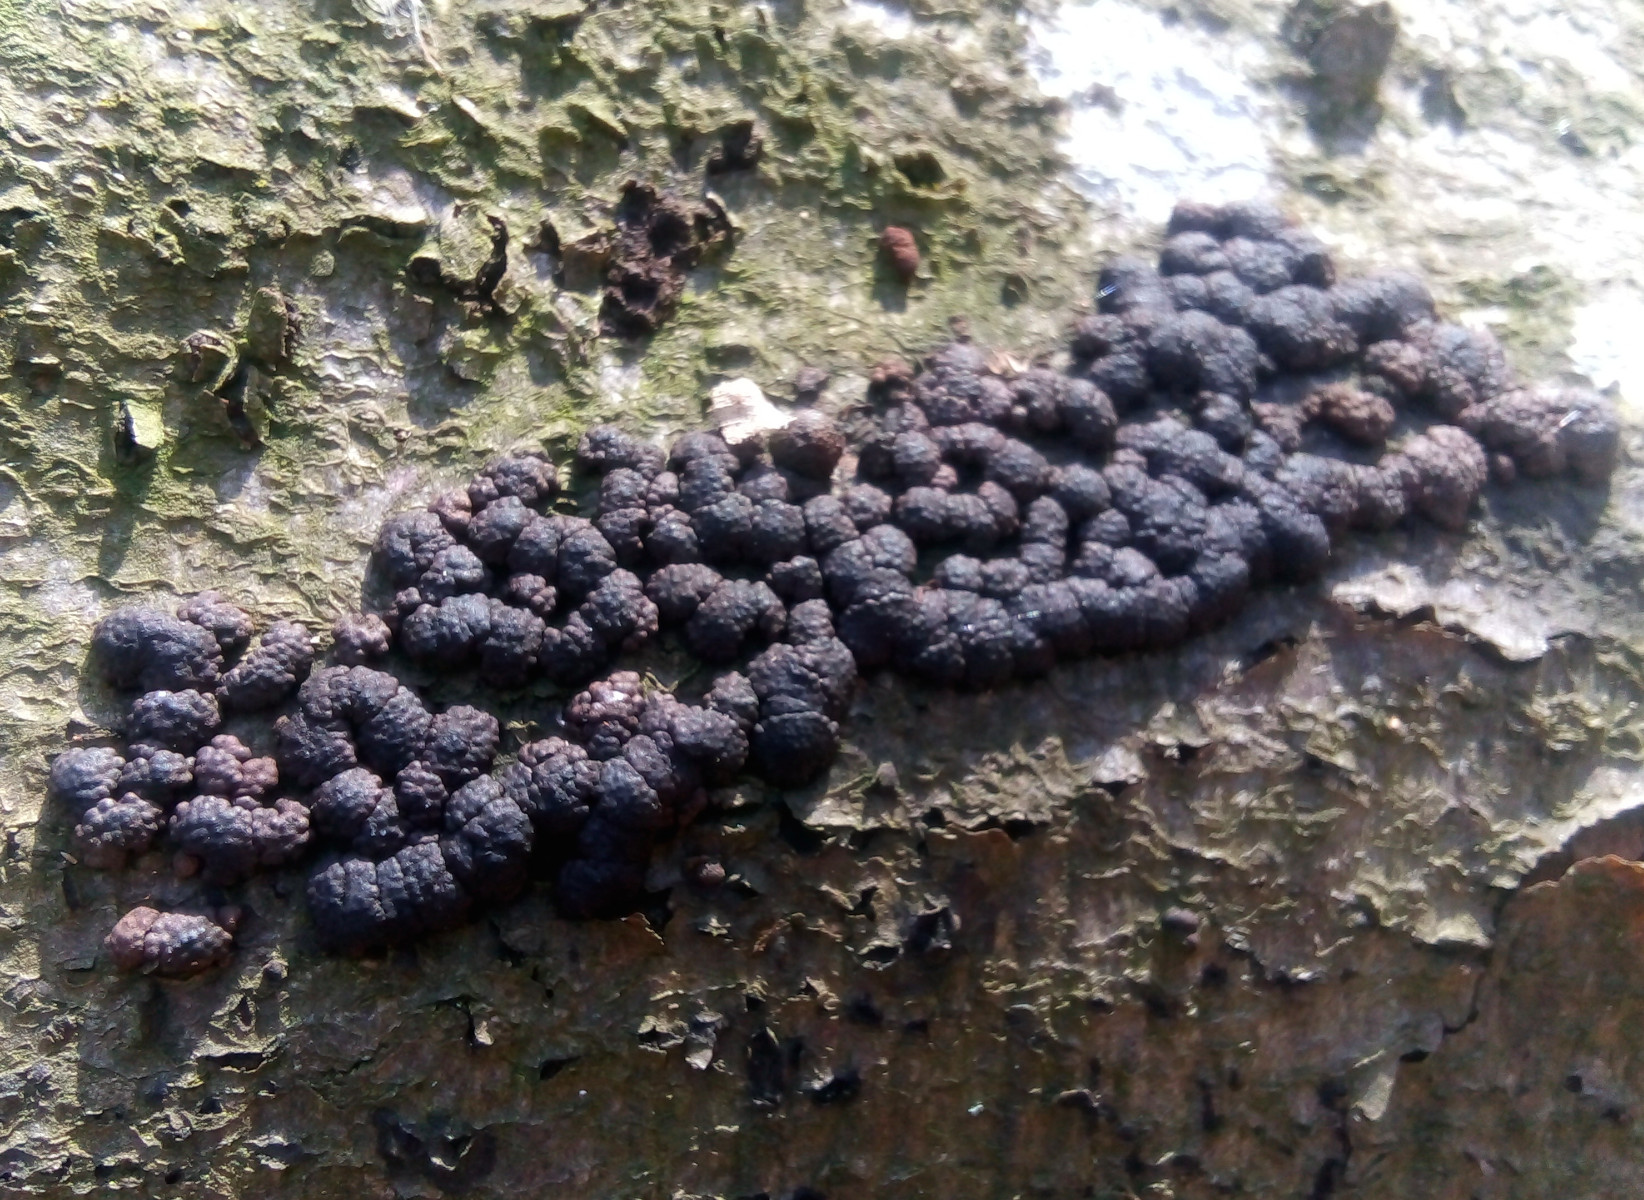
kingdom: Fungi
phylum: Ascomycota
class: Sordariomycetes
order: Xylariales
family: Hypoxylaceae
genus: Jackrogersella
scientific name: Jackrogersella cohaerens
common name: sammenflydende kulbær
